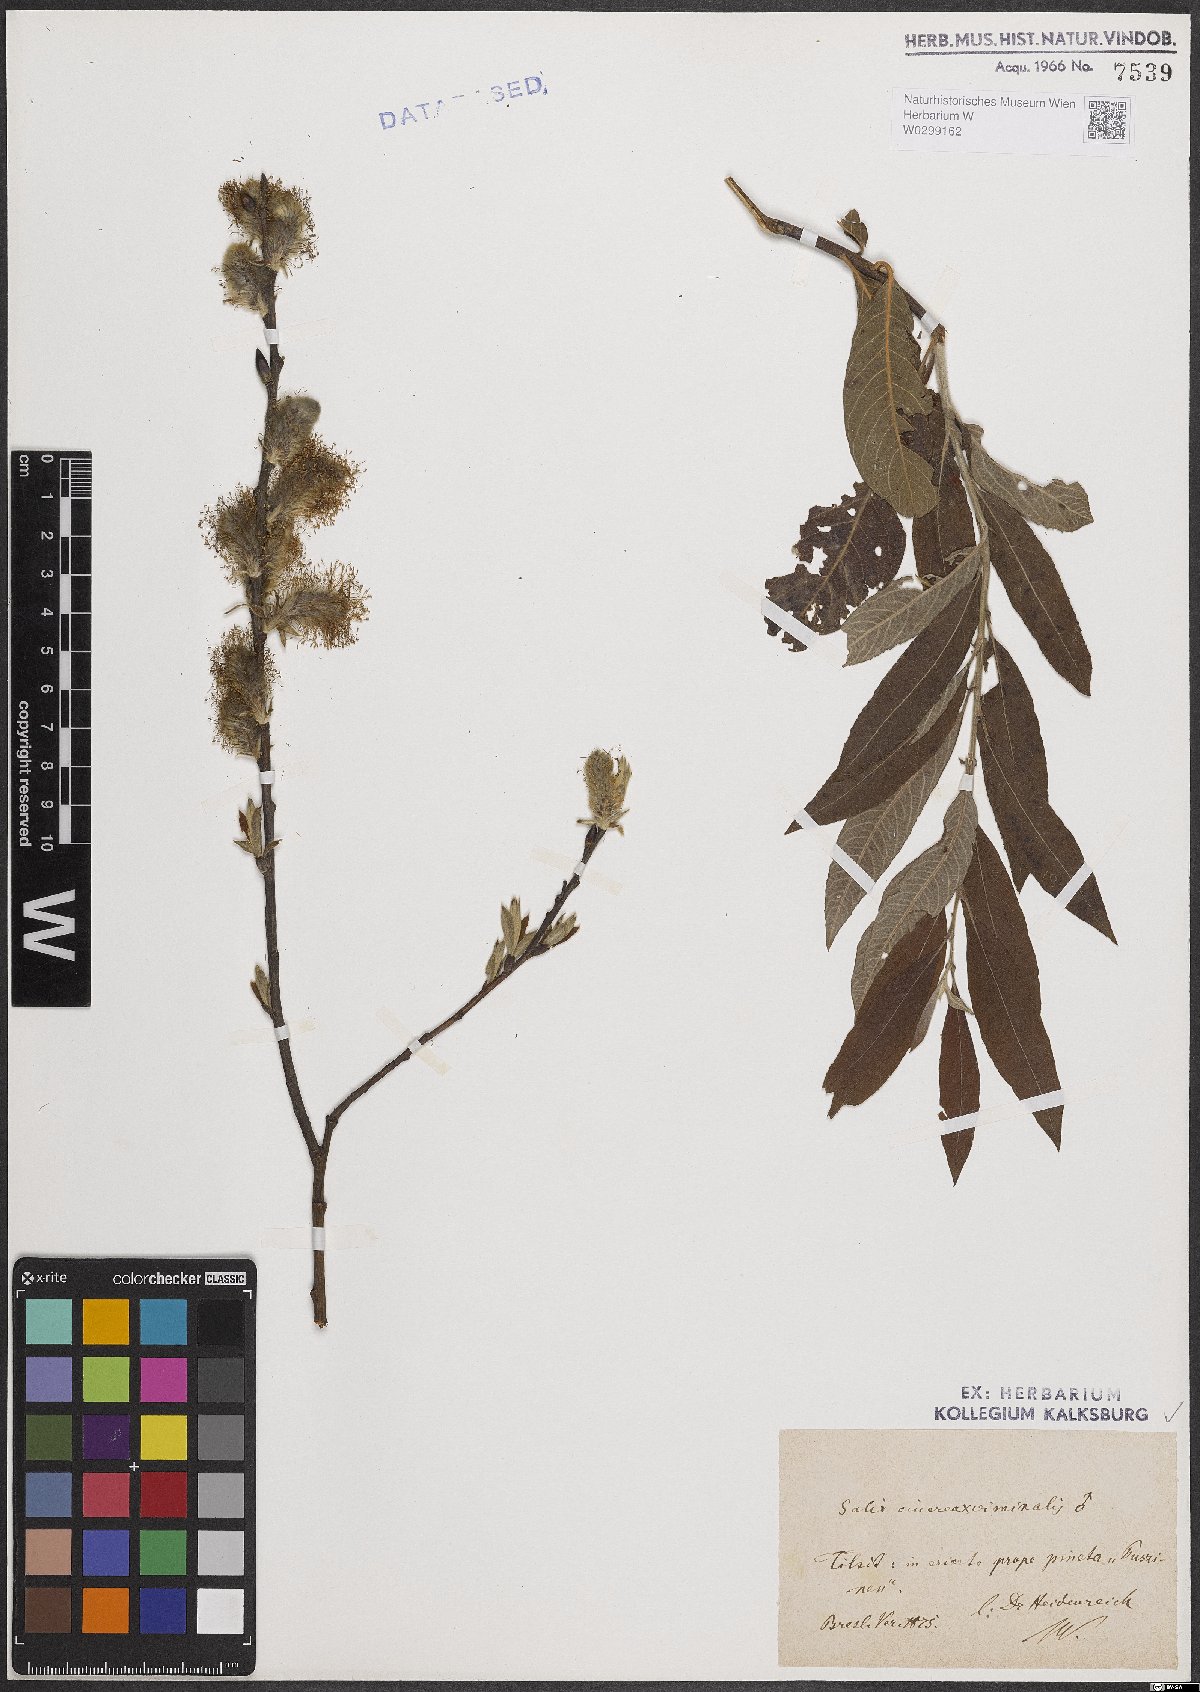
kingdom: Plantae
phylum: Tracheophyta
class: Magnoliopsida
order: Malpighiales
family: Salicaceae
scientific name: Salicaceae
